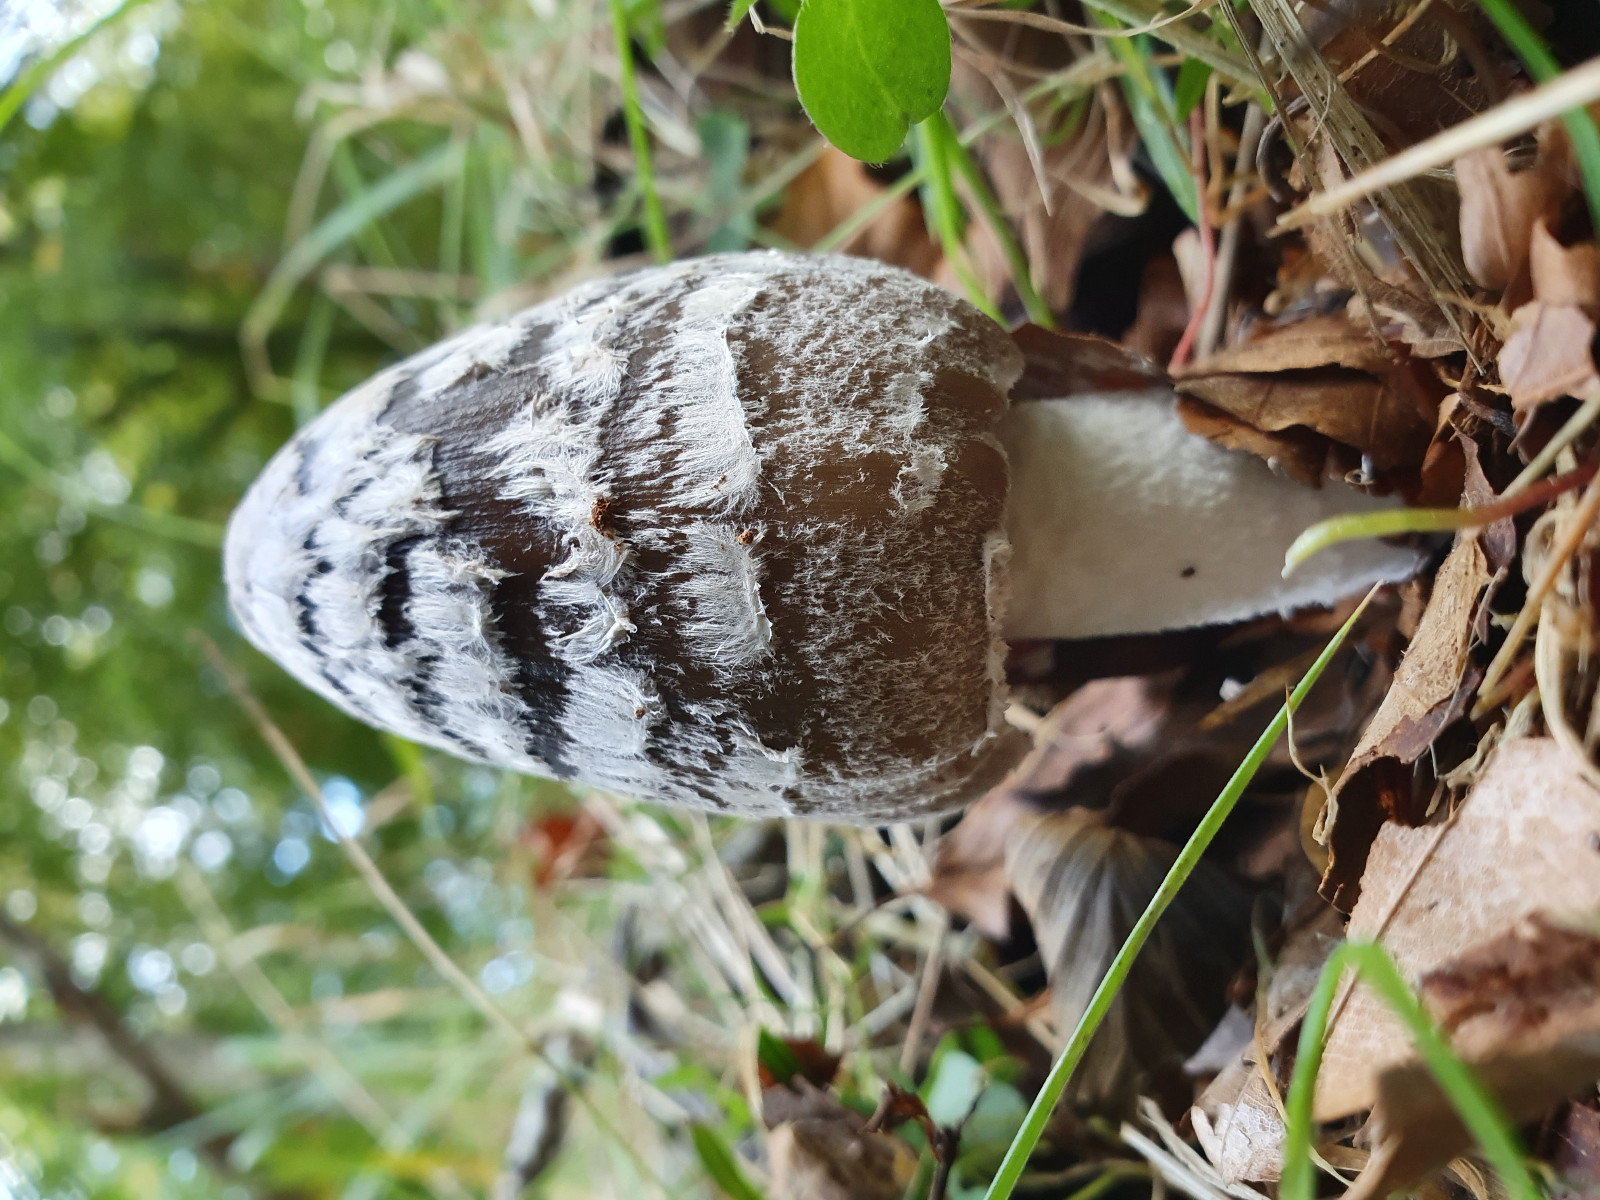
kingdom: Fungi
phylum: Basidiomycota
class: Agaricomycetes
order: Agaricales
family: Psathyrellaceae
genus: Coprinopsis
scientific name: Coprinopsis picacea
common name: skade-blækhat
